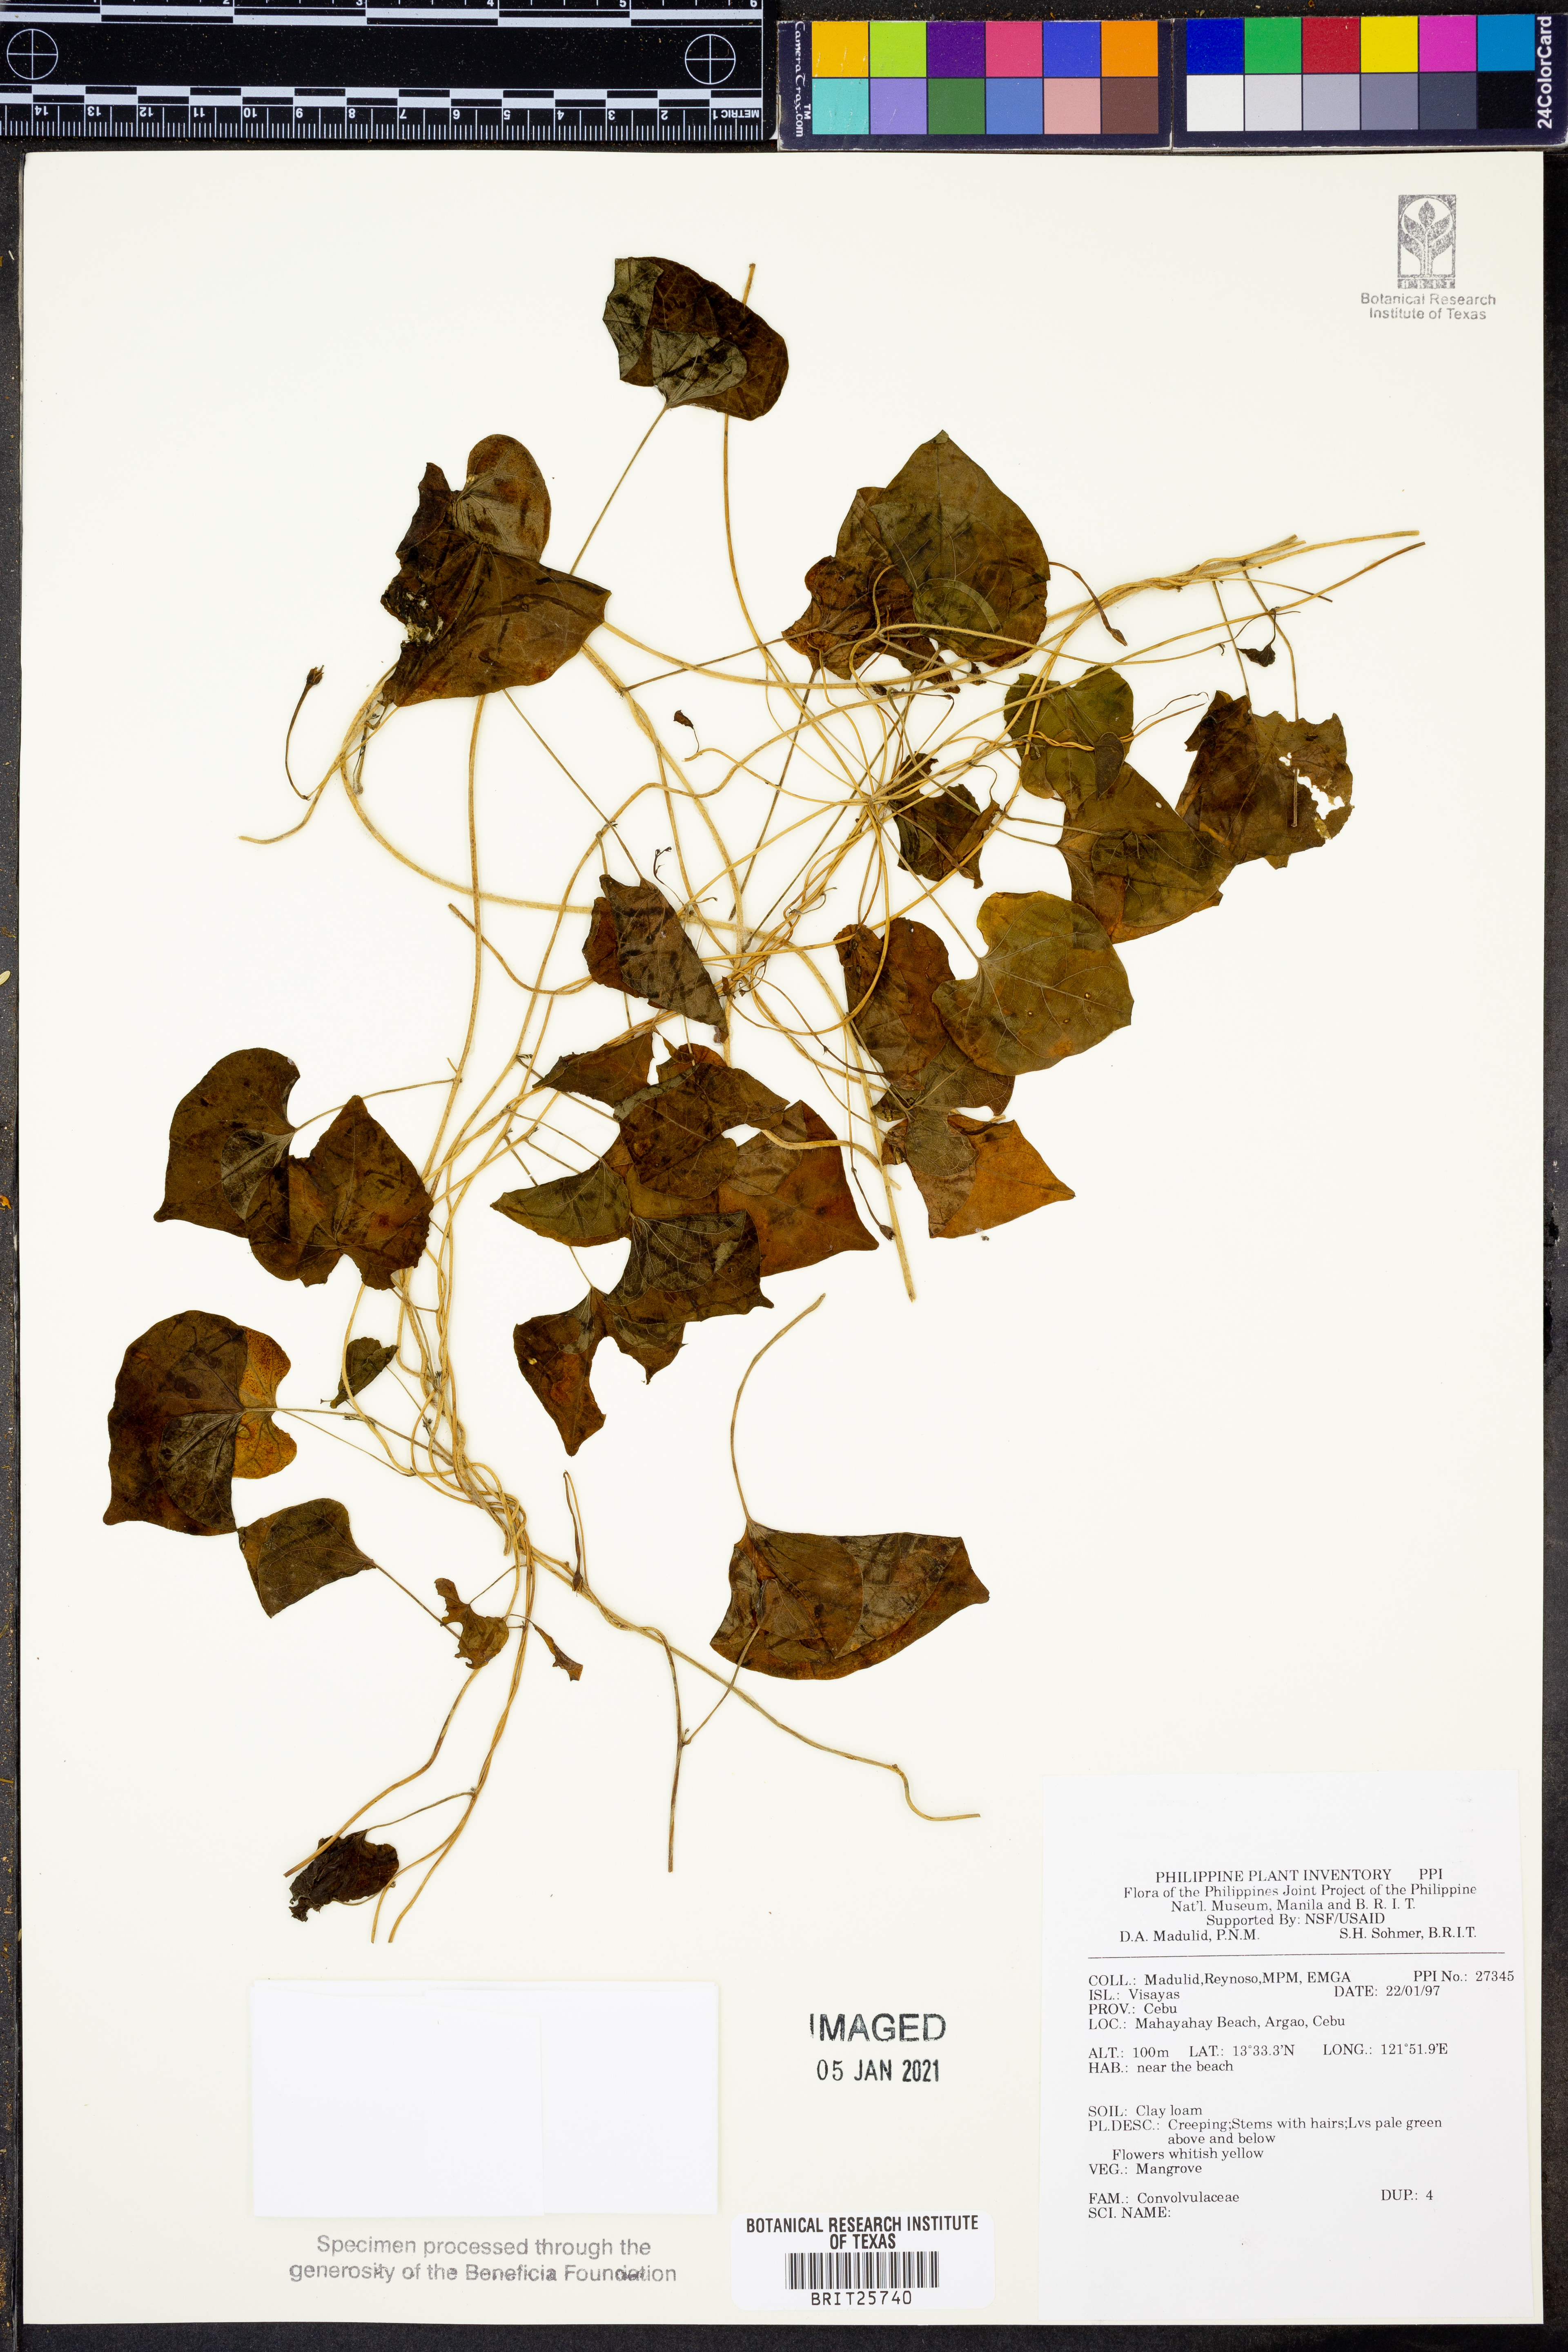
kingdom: Plantae
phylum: Tracheophyta
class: Magnoliopsida
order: Solanales
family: Convolvulaceae
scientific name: Convolvulaceae
